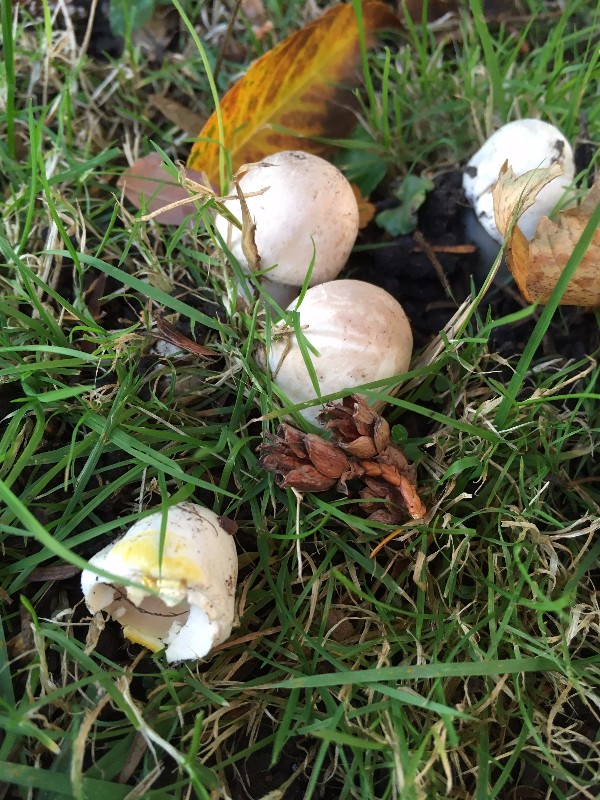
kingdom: Fungi
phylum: Basidiomycota
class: Agaricomycetes
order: Agaricales
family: Agaricaceae
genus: Agaricus
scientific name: Agaricus xanthodermus
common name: karbol-champignon
